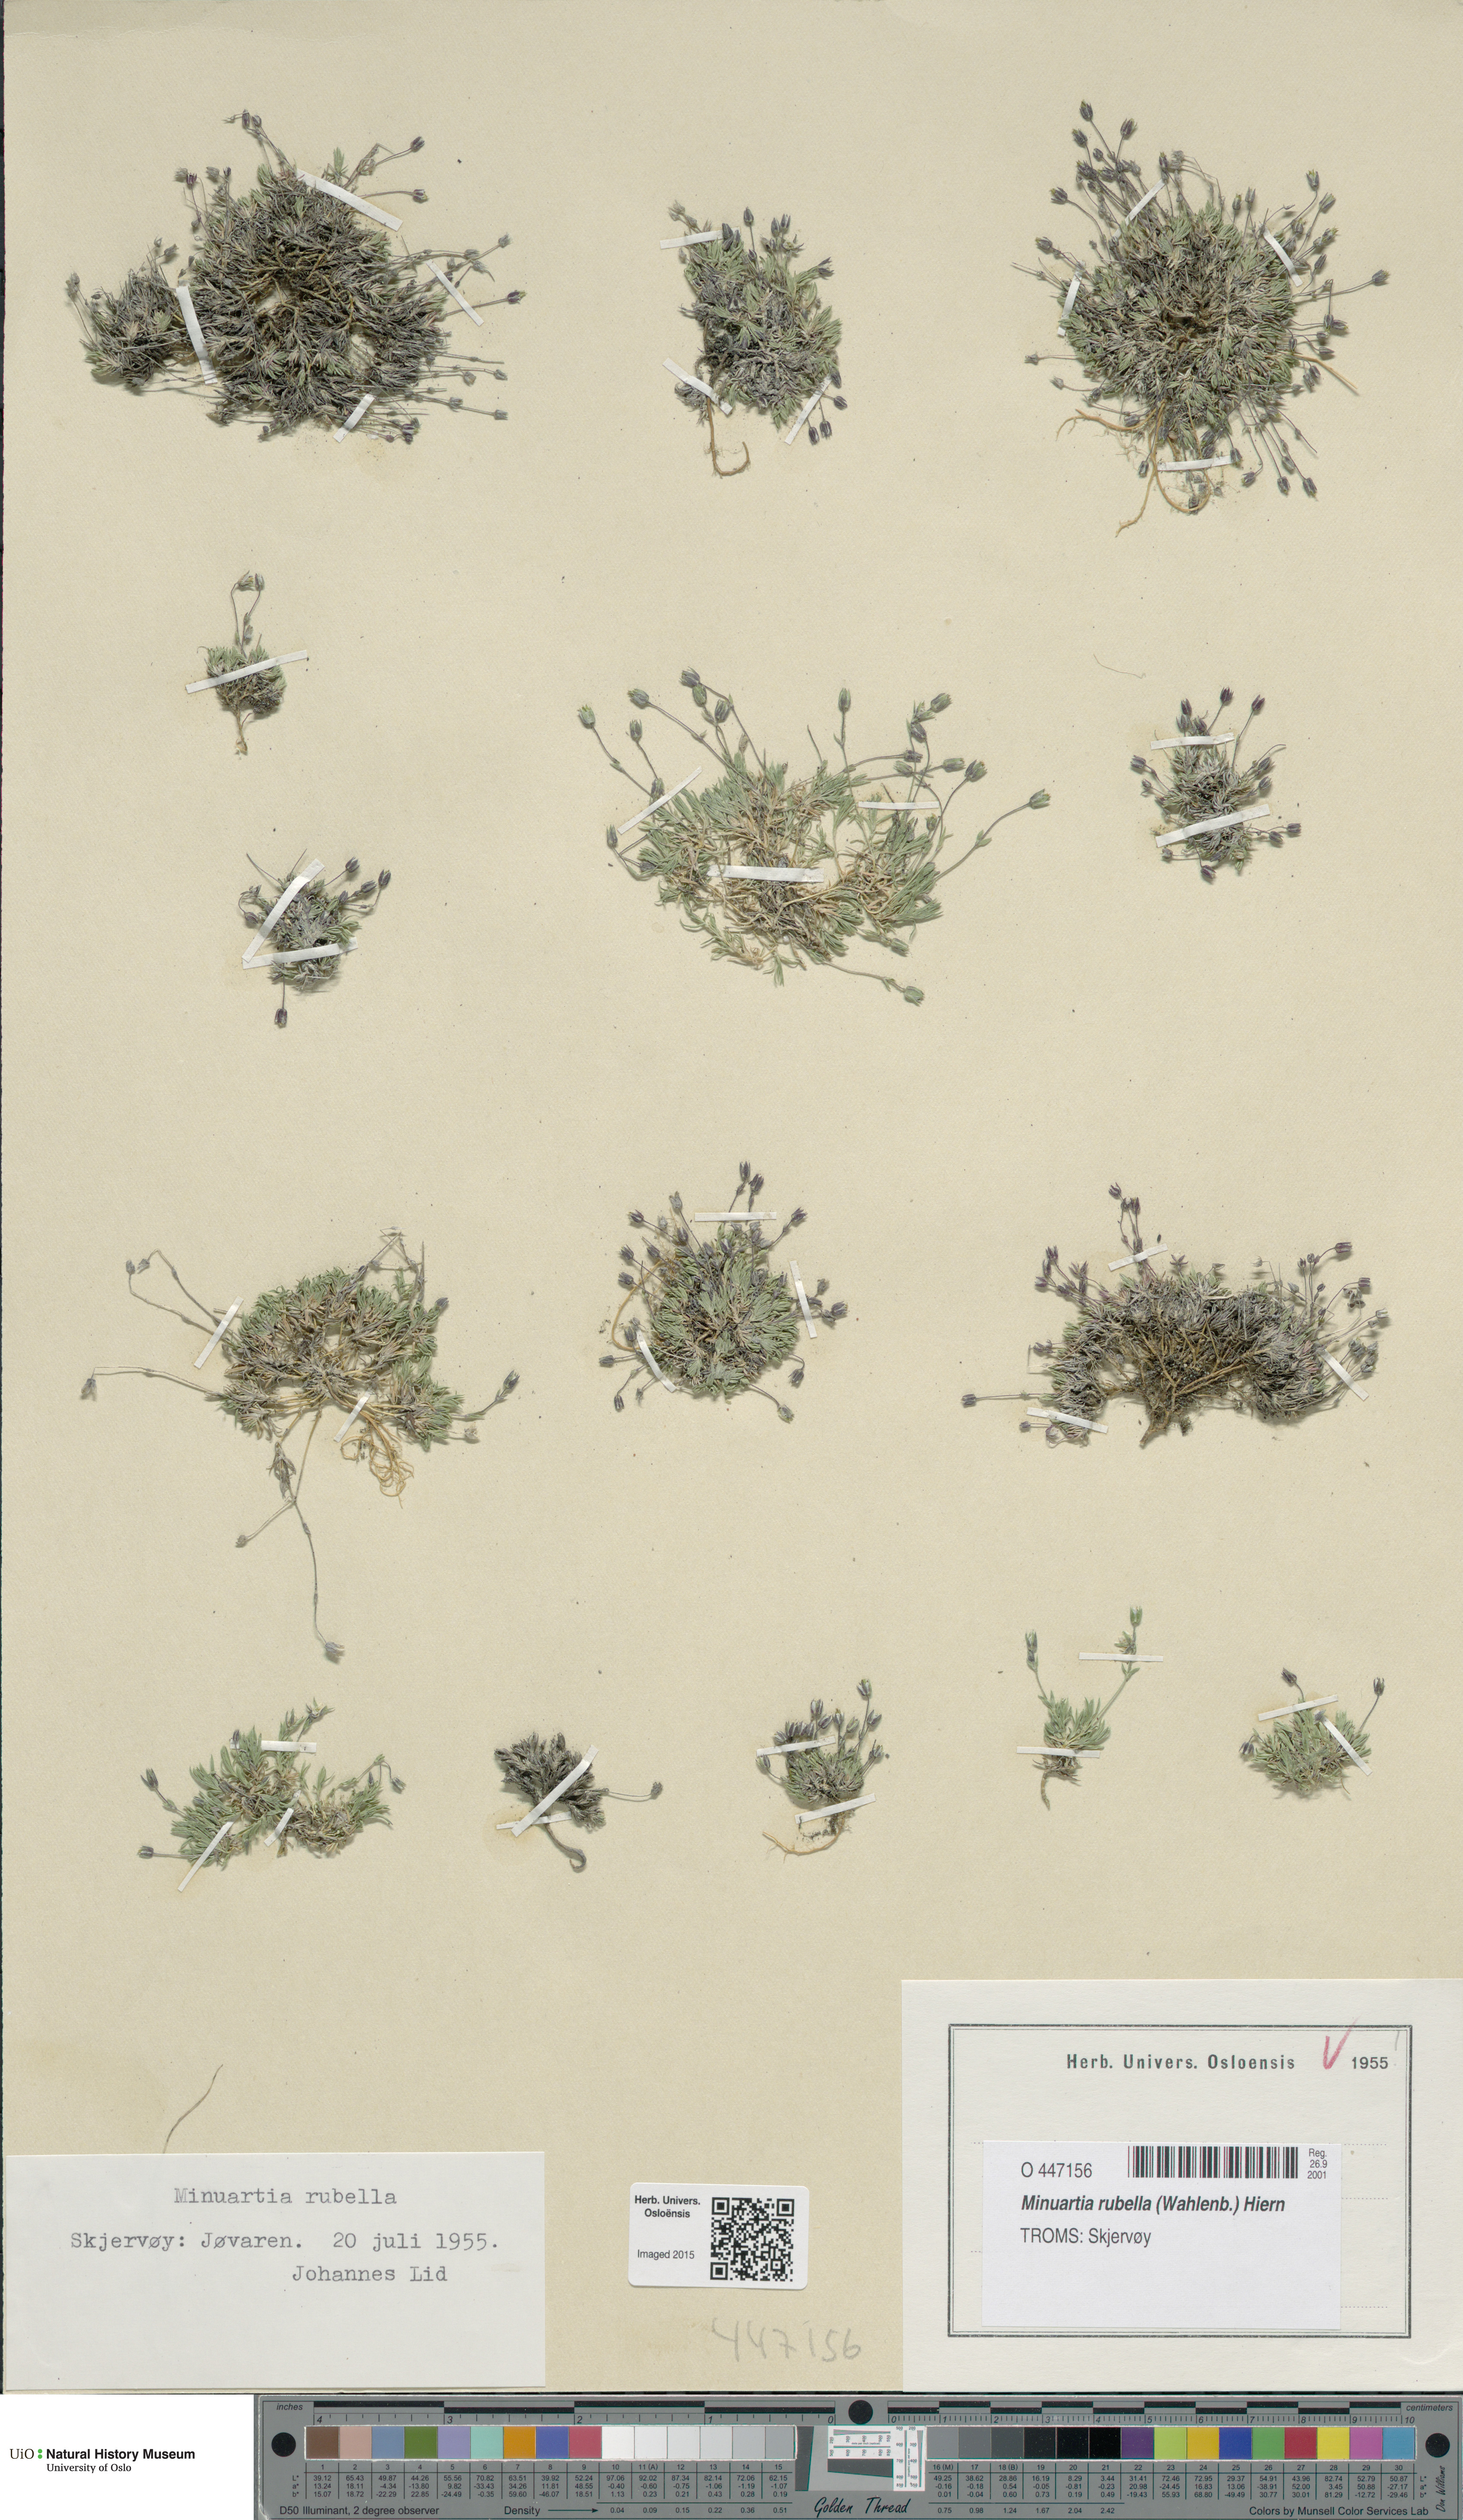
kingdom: Plantae
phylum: Tracheophyta
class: Magnoliopsida
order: Caryophyllales
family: Caryophyllaceae
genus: Sabulina
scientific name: Sabulina rubella
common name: Beautiful sandwort
